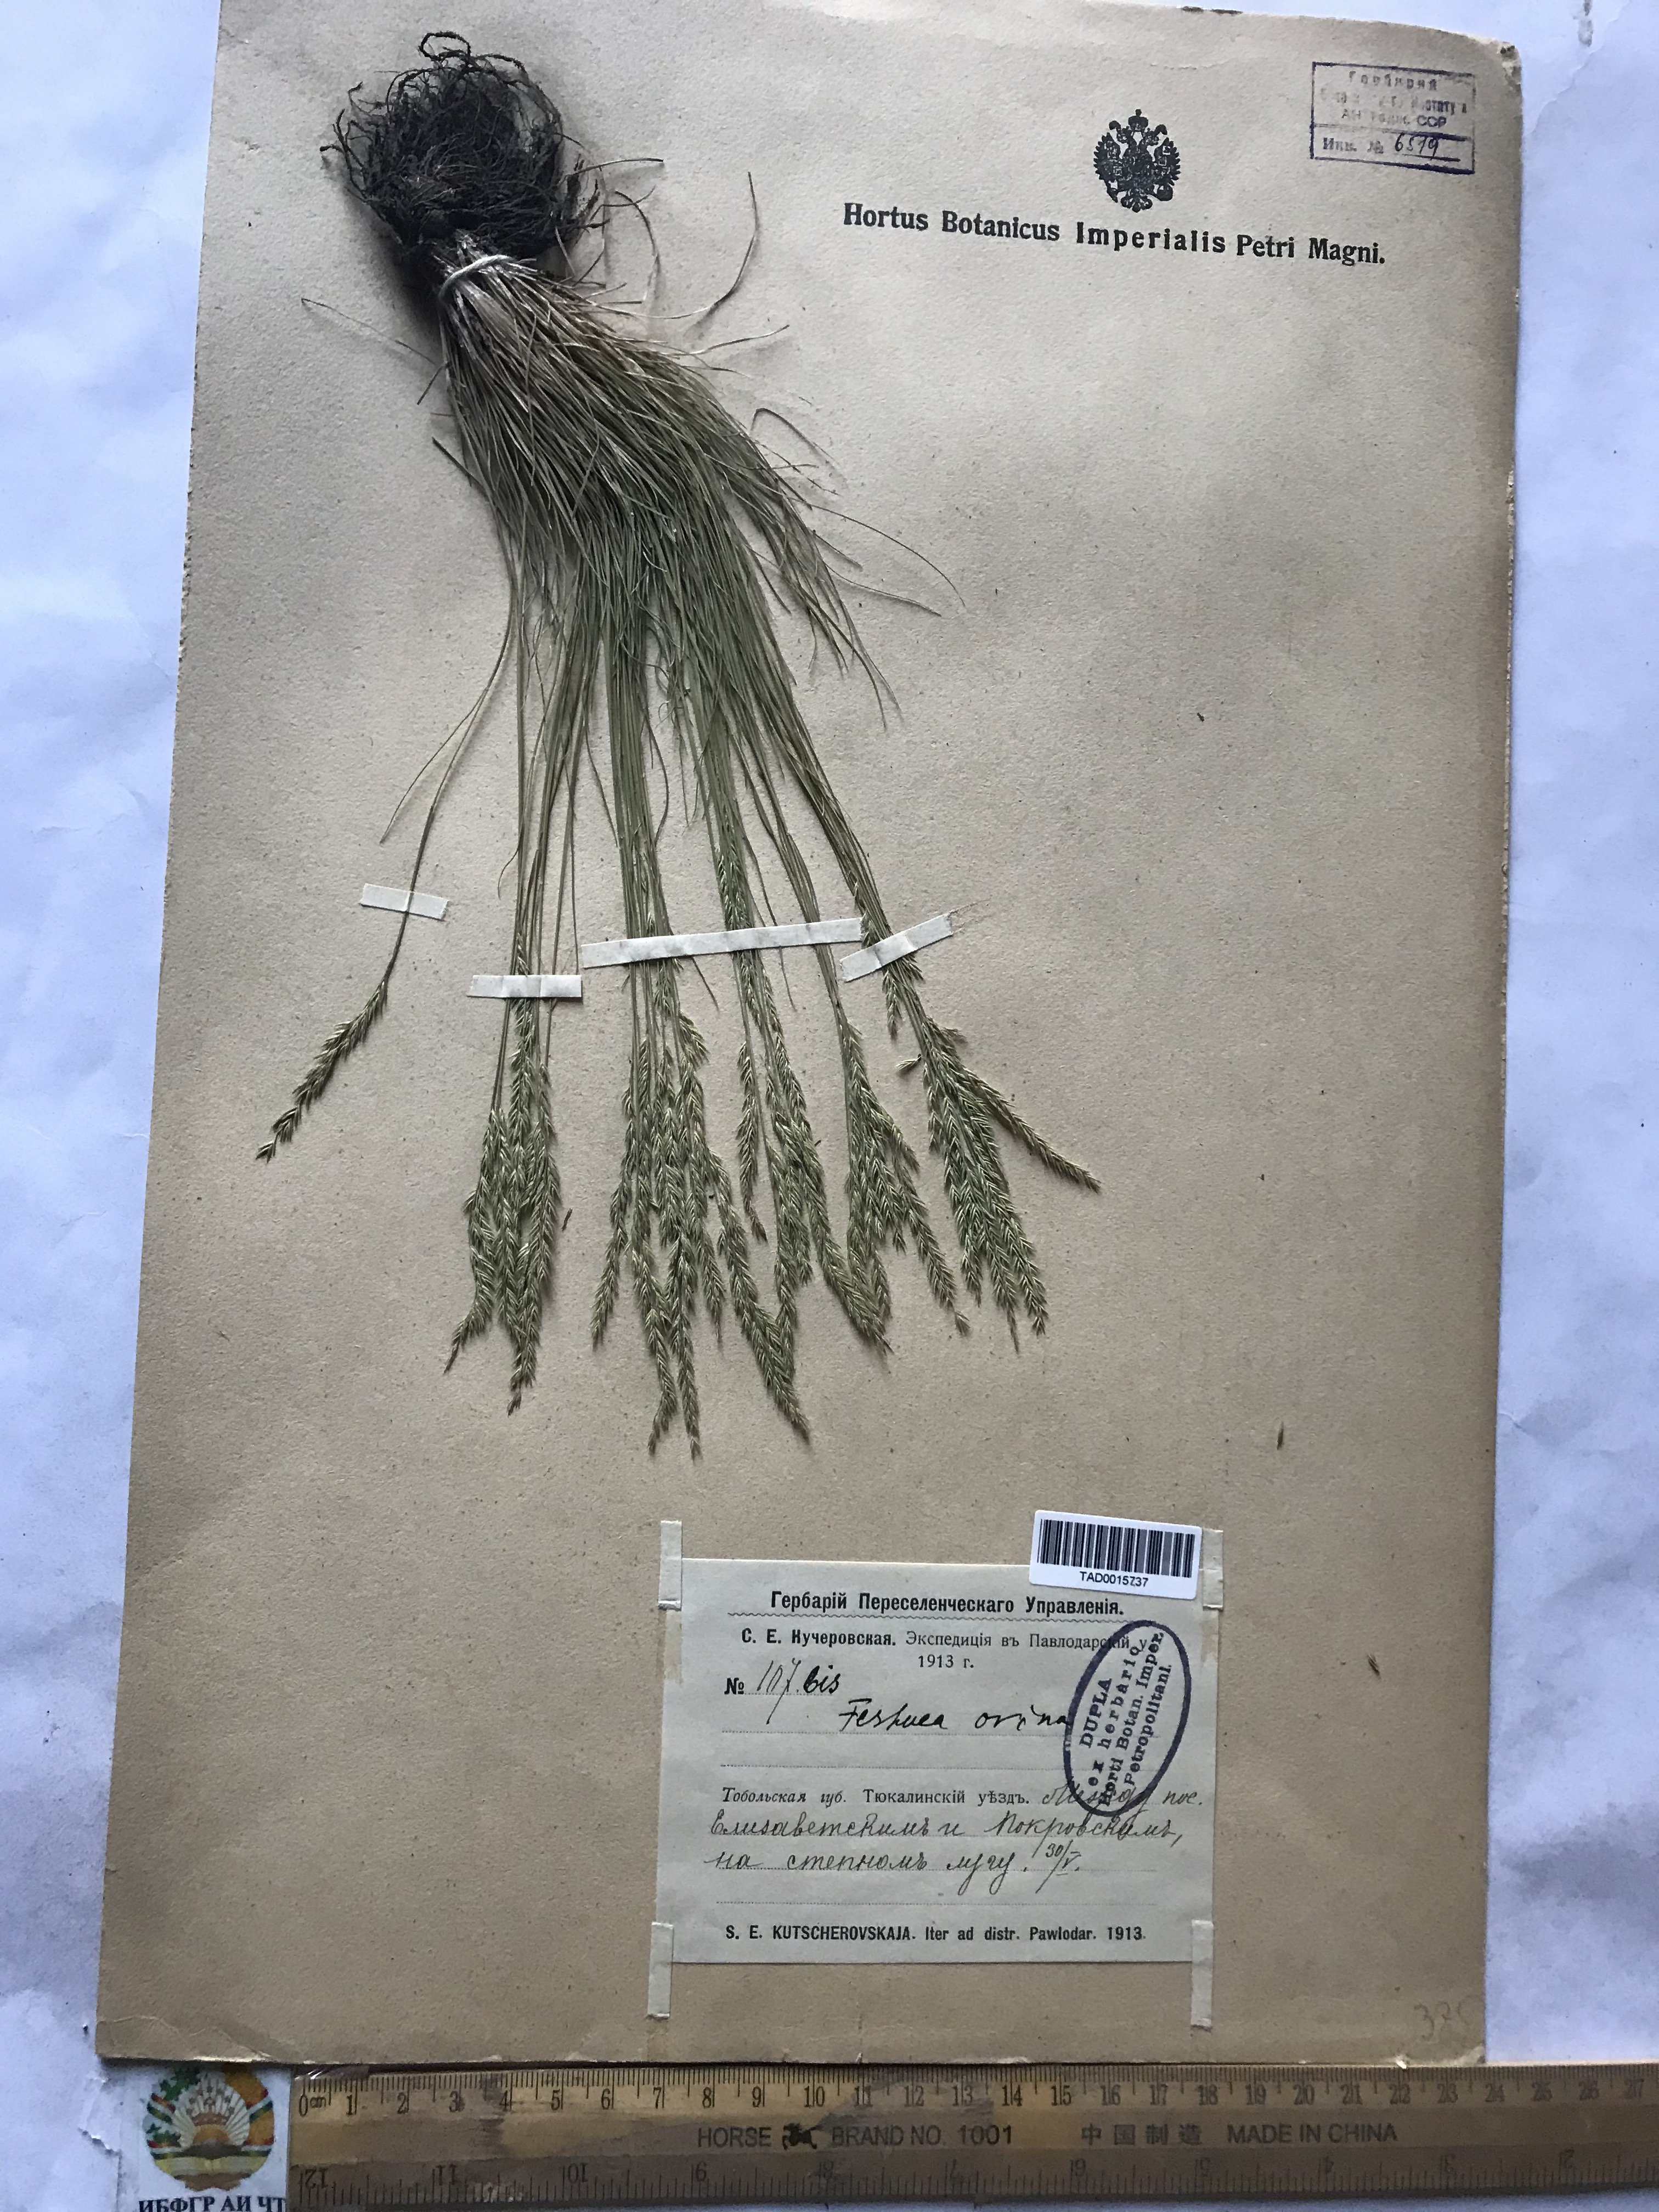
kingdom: Plantae
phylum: Tracheophyta
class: Liliopsida
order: Poales
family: Poaceae
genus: Festuca
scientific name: Festuca ovina
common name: Sheep fescue
